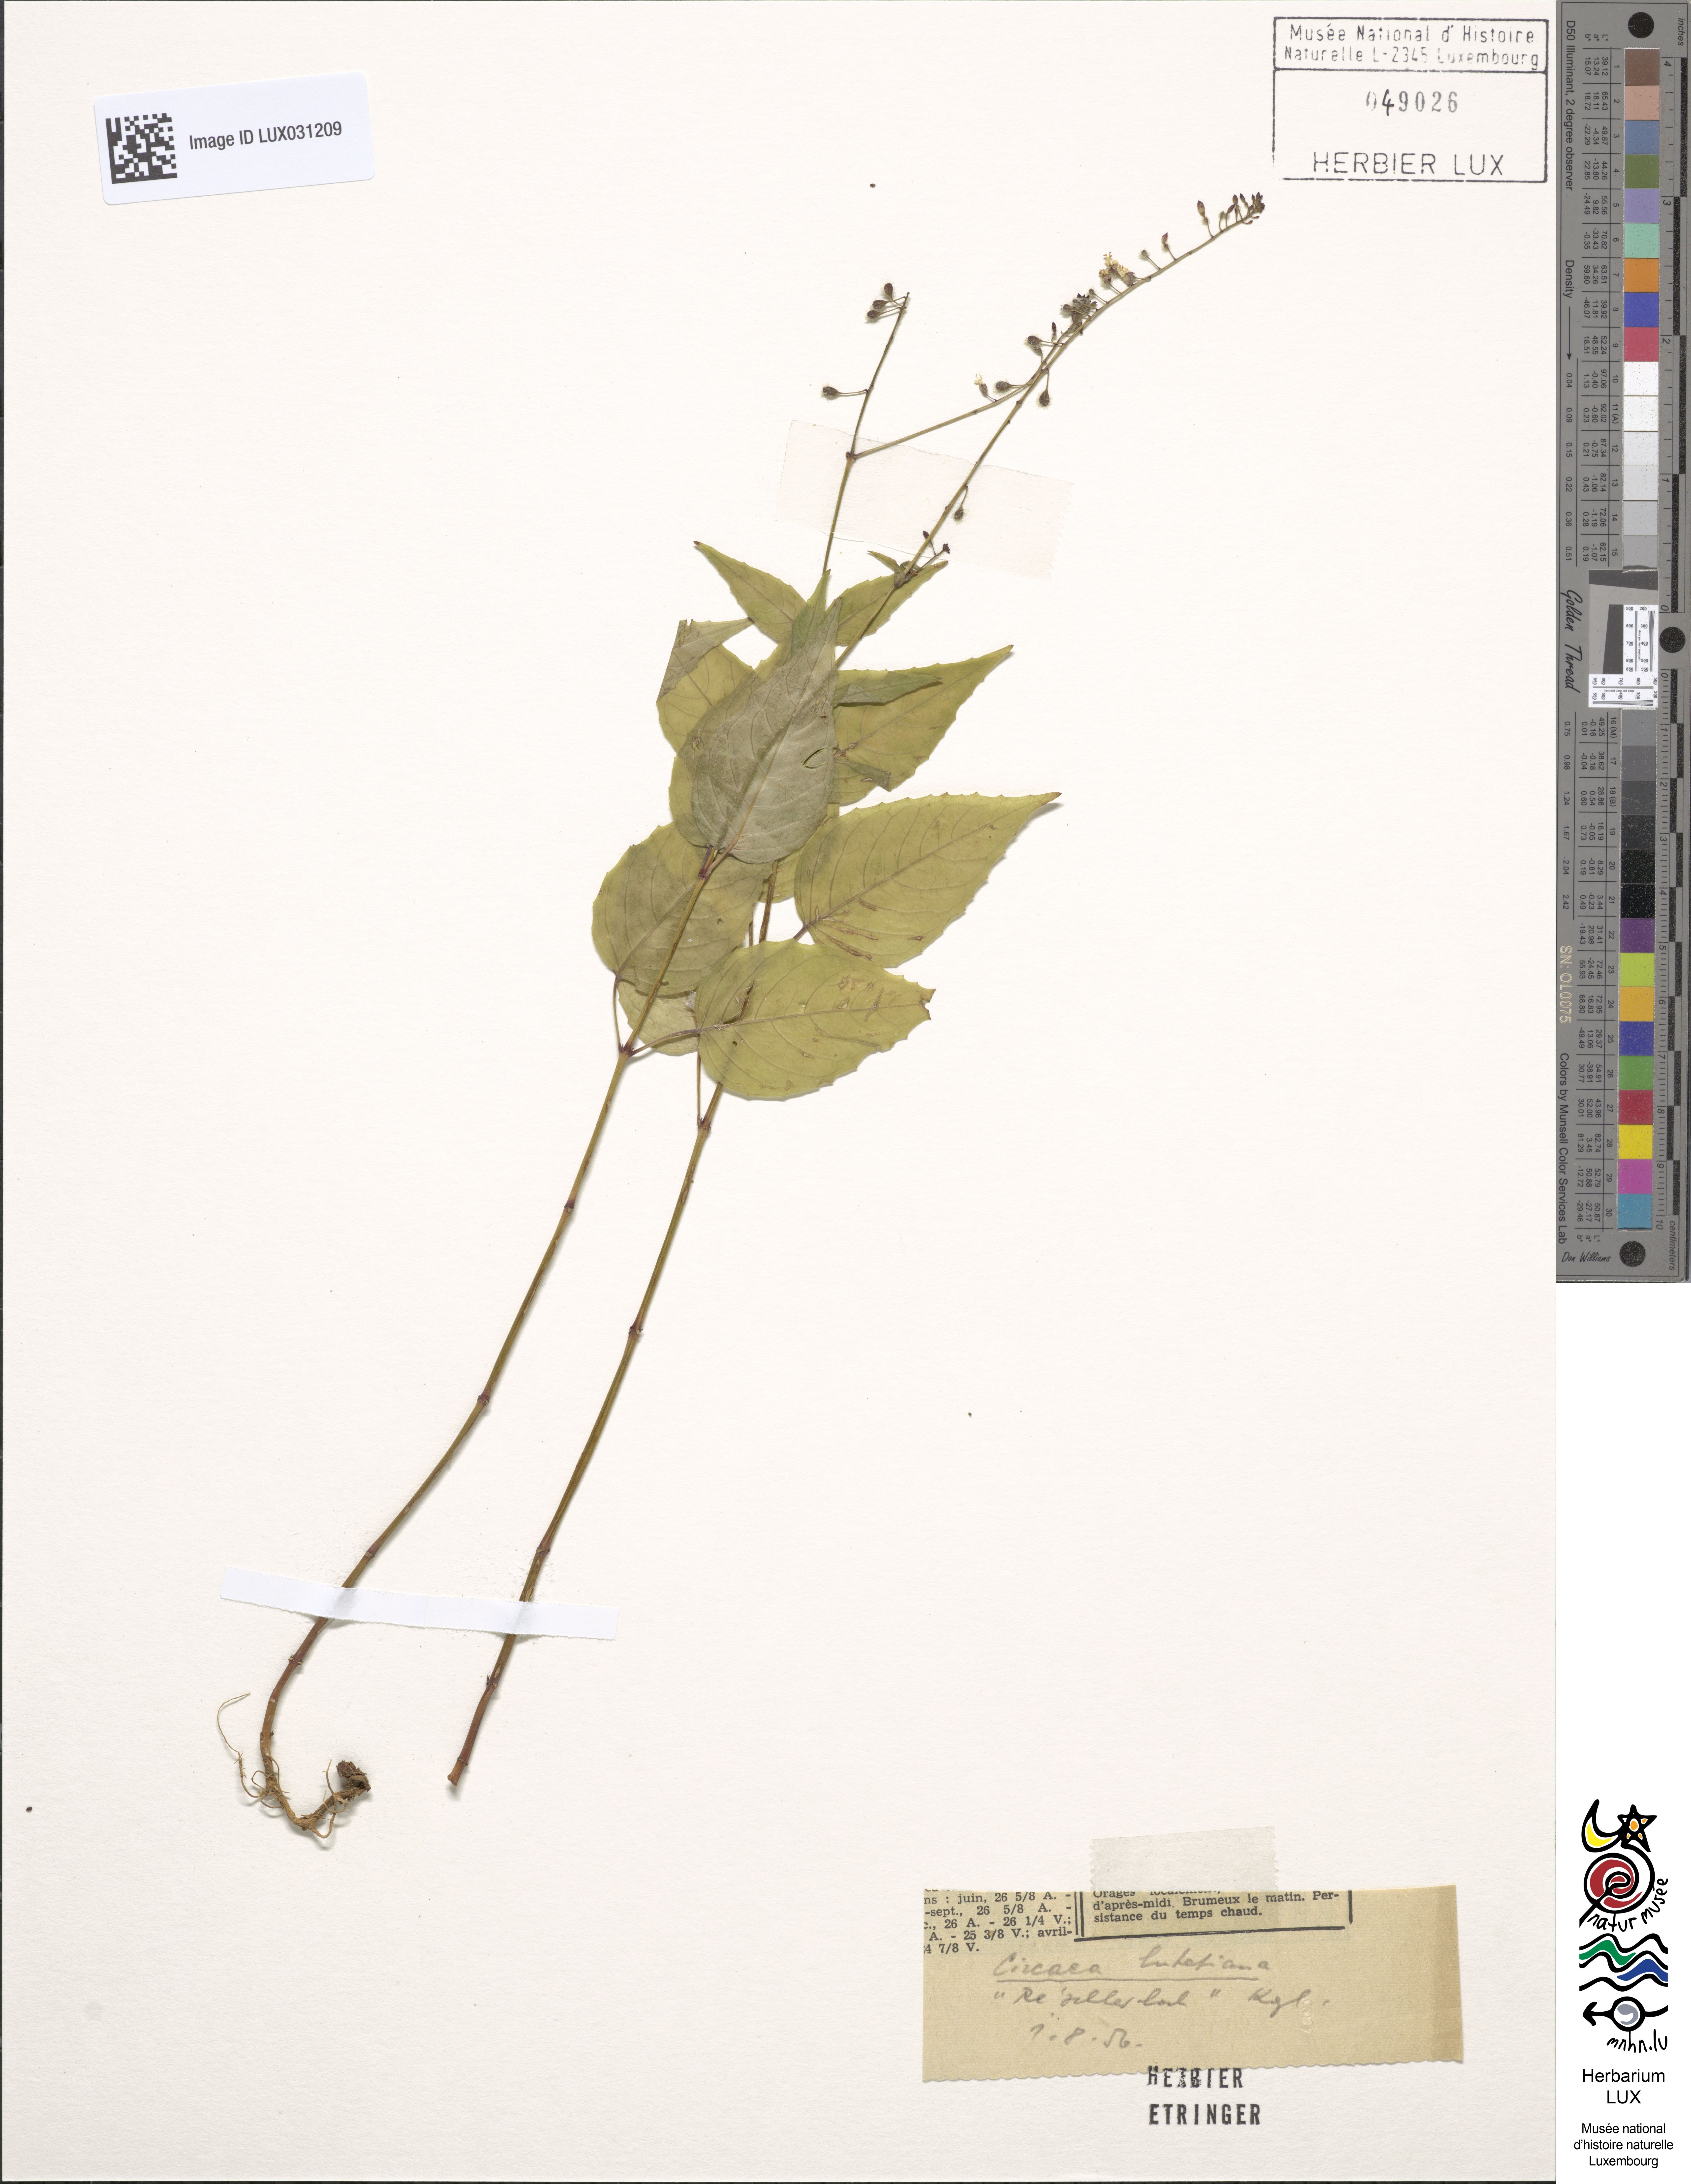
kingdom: Plantae
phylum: Tracheophyta
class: Magnoliopsida
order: Myrtales
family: Onagraceae
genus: Circaea
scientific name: Circaea lutetiana
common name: Enchanter's-nightshade
